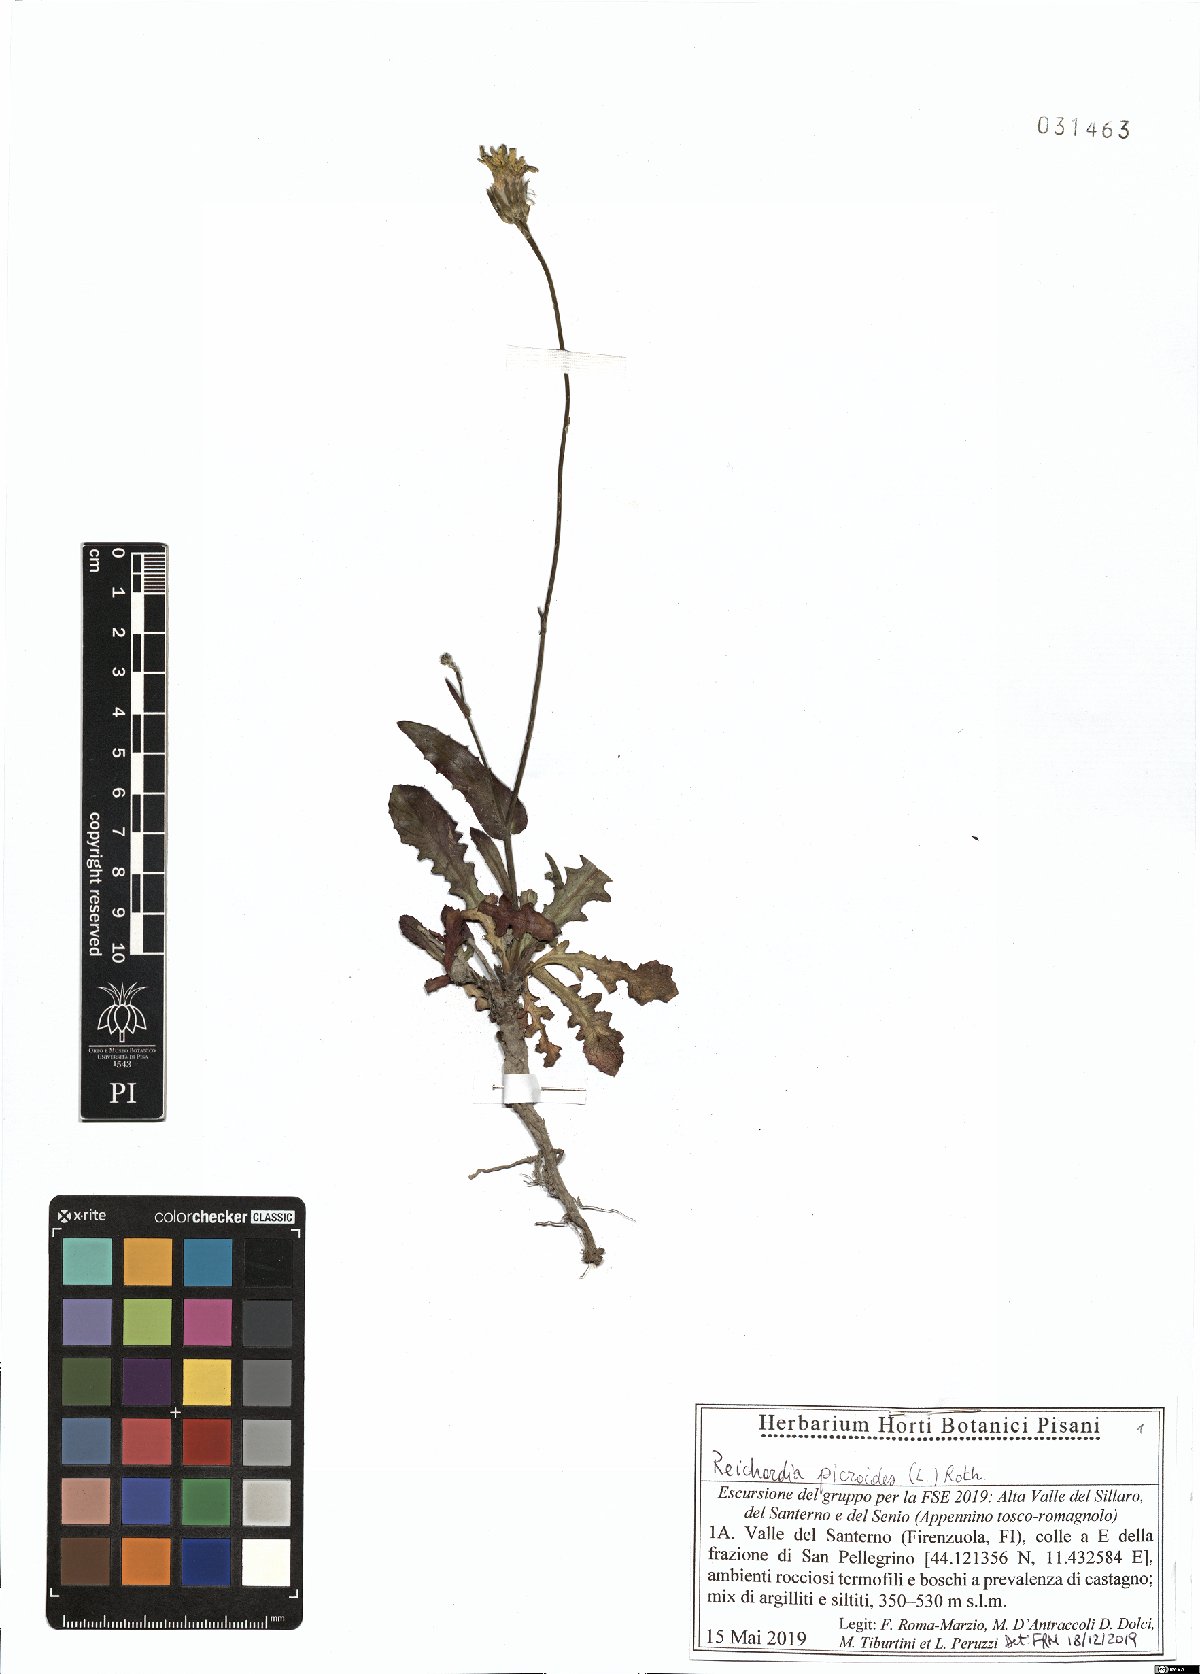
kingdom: Plantae
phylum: Tracheophyta
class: Magnoliopsida
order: Asterales
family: Asteraceae
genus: Reichardia
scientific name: Reichardia picroides
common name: Common brighteyes
